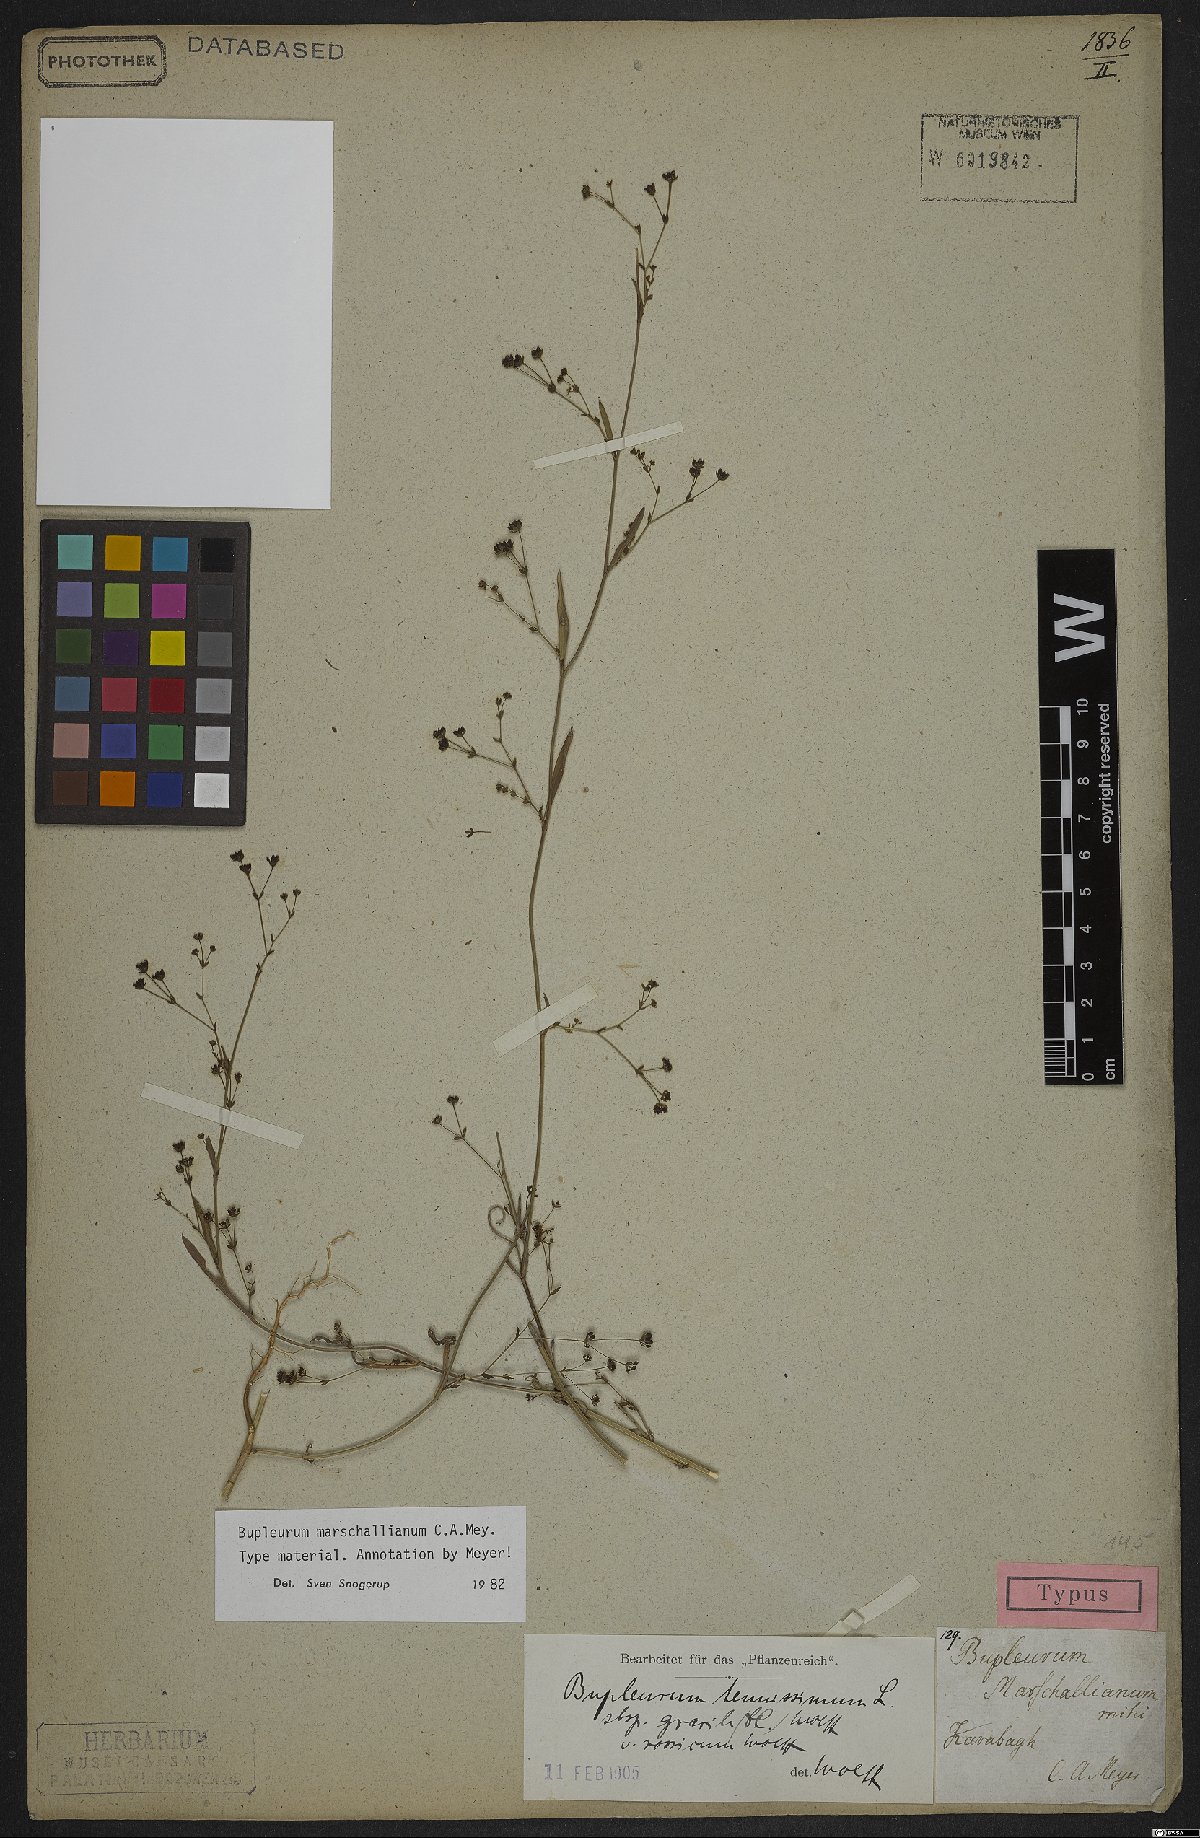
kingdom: Plantae
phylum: Tracheophyta
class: Magnoliopsida
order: Apiales
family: Apiaceae
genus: Bupleurum
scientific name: Bupleurum marschallianum
